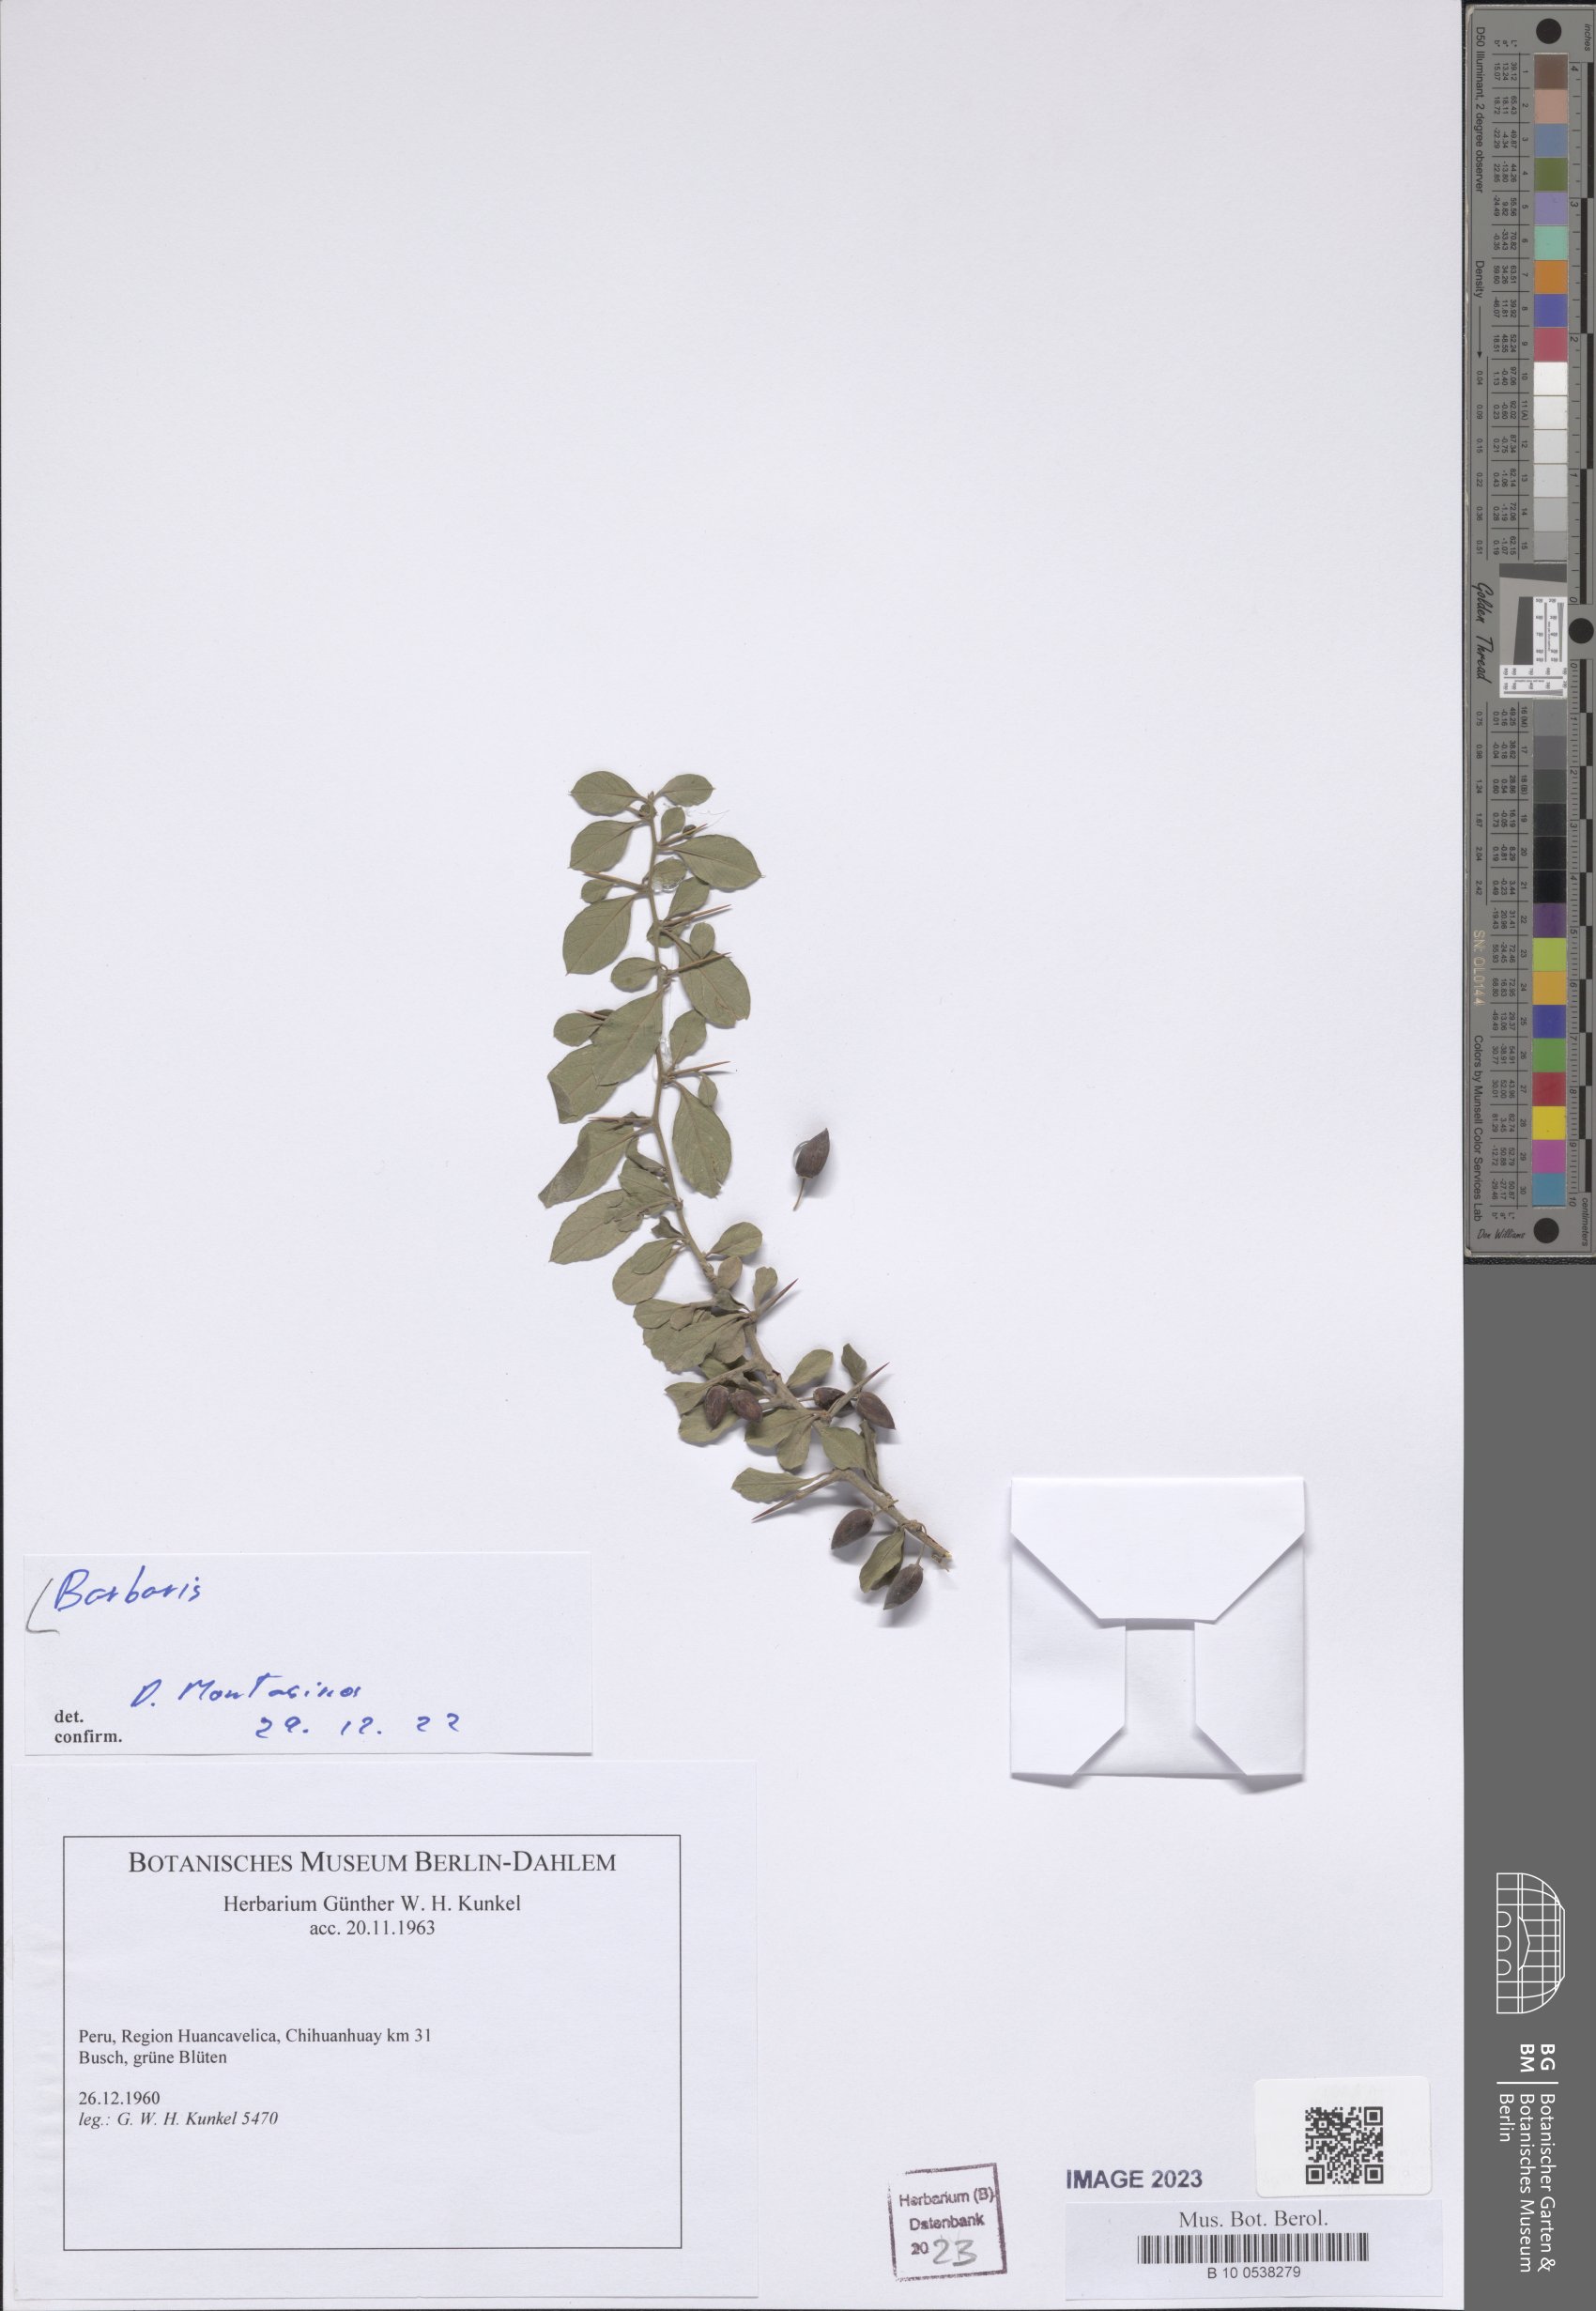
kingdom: Plantae
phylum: Tracheophyta
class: Magnoliopsida
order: Ranunculales
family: Berberidaceae
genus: Berberis
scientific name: Berberis
